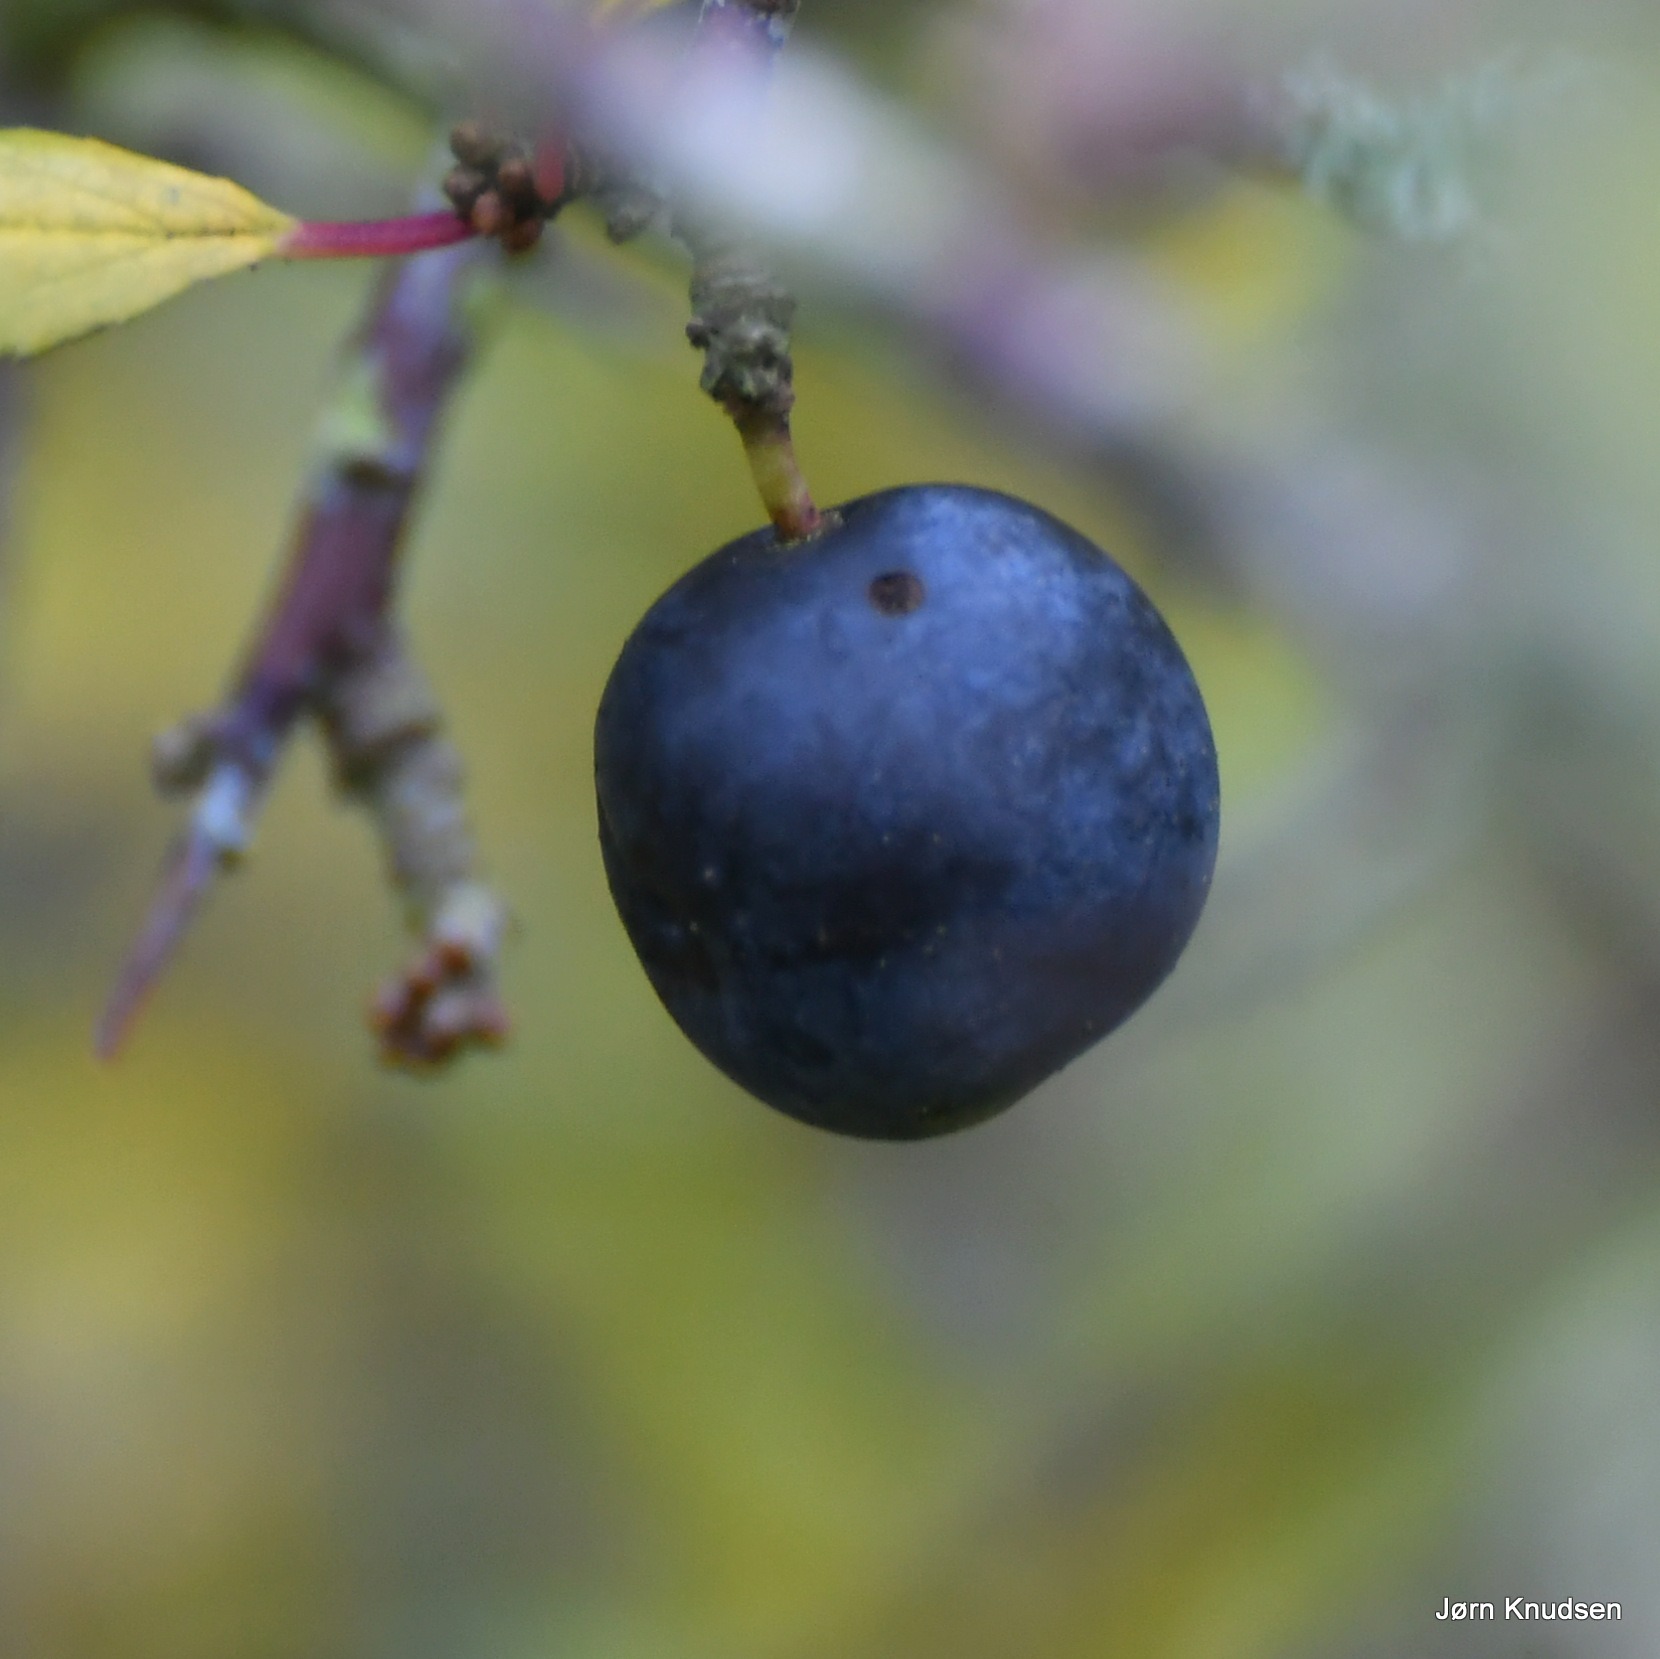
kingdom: Plantae
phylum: Tracheophyta
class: Magnoliopsida
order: Rosales
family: Rosaceae
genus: Prunus
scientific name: Prunus spinosa
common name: Slåen
